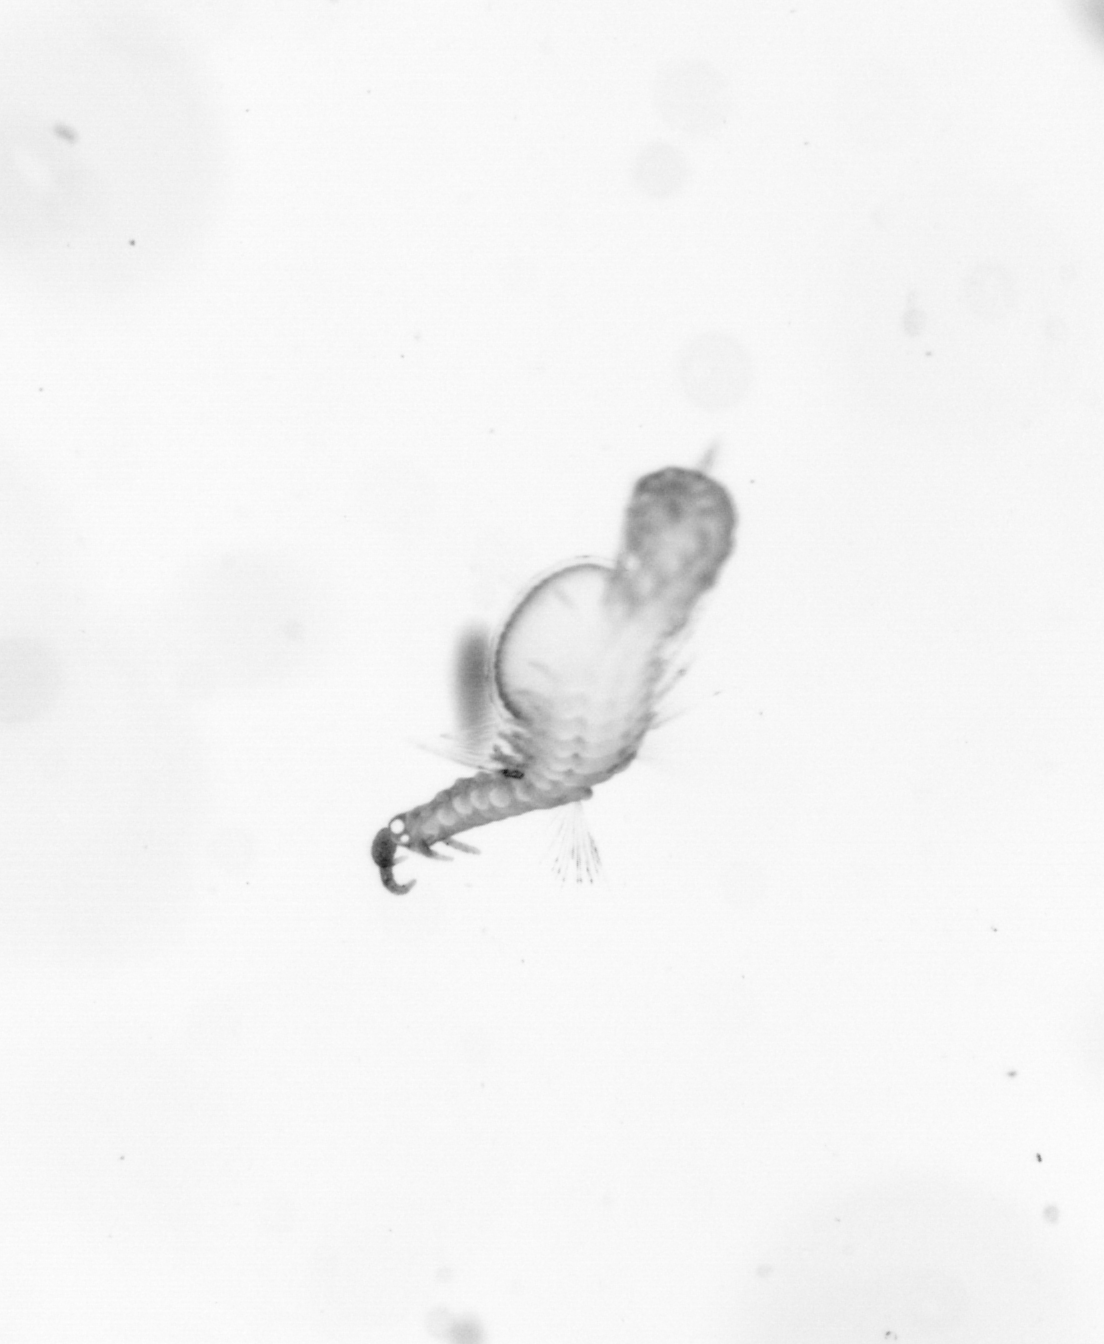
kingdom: Animalia
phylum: Annelida
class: Polychaeta
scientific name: Polychaeta
